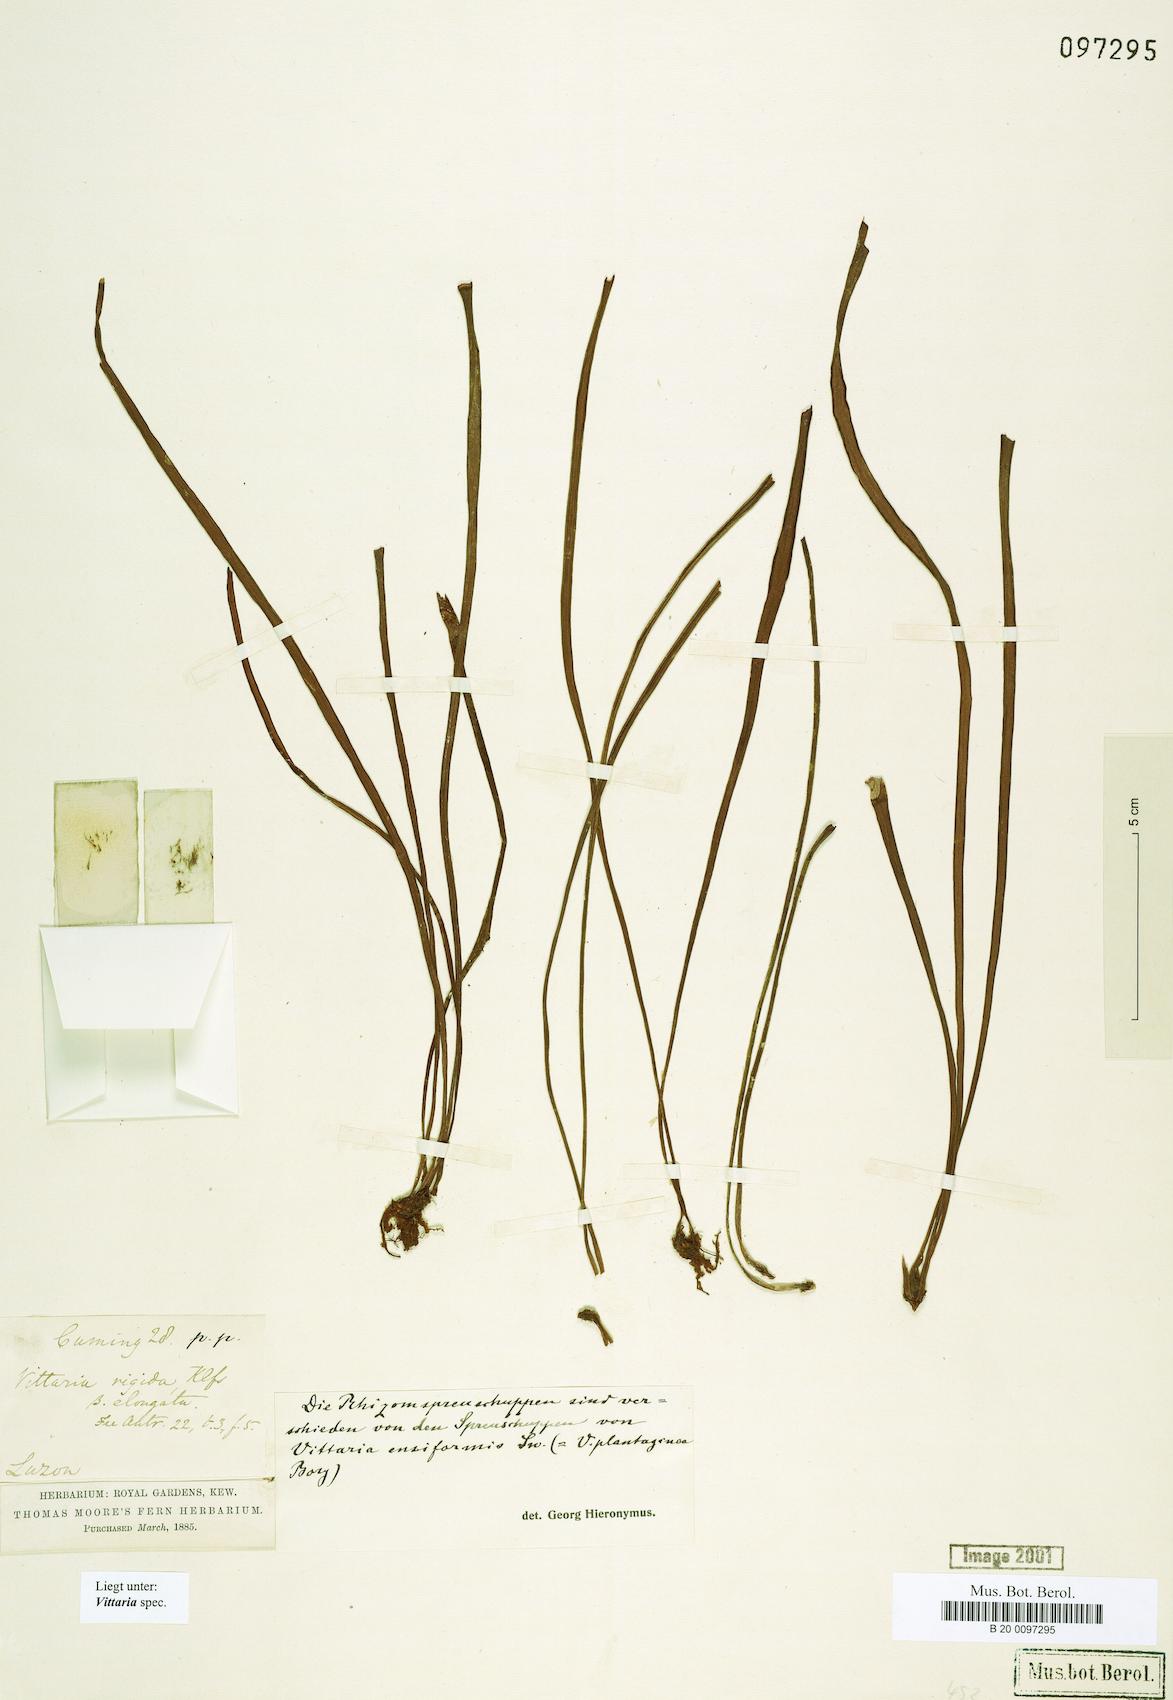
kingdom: Plantae
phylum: Tracheophyta
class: Polypodiopsida
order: Polypodiales
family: Pteridaceae
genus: Haplopteris
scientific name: Haplopteris ensiformis
